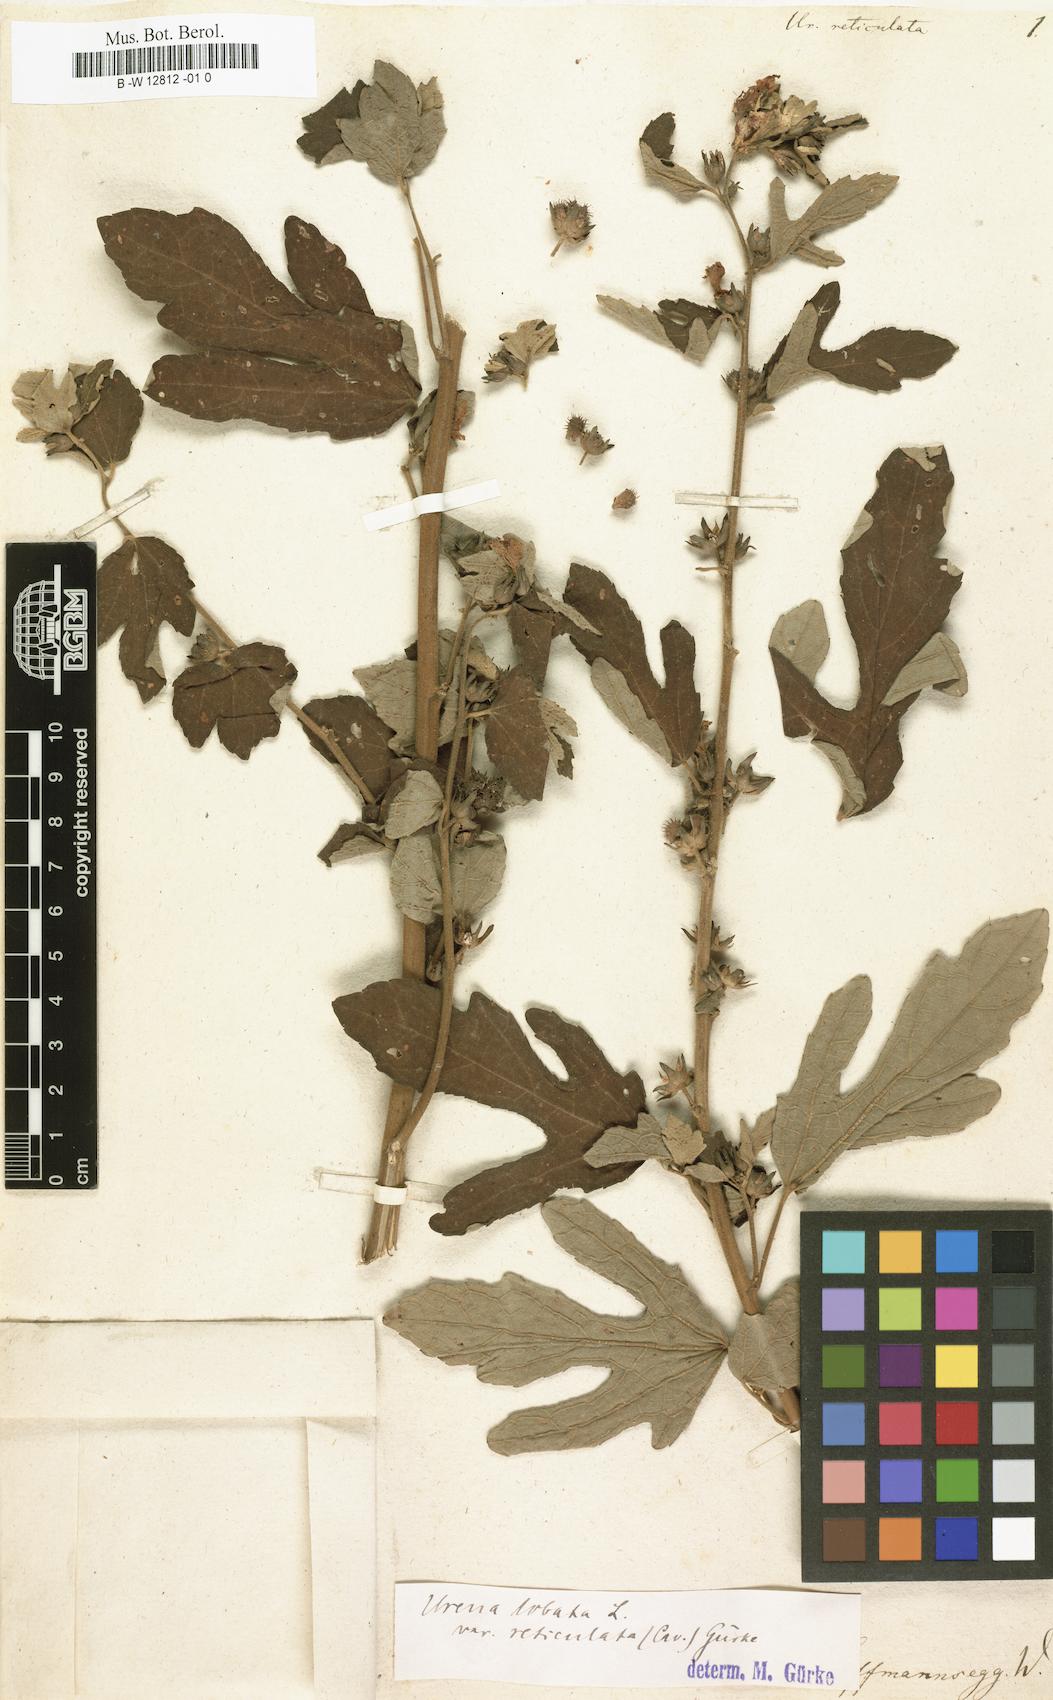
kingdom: Plantae
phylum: Tracheophyta
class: Magnoliopsida
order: Malvales
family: Malvaceae
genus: Urena
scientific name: Urena lobata
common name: Caesarweed
